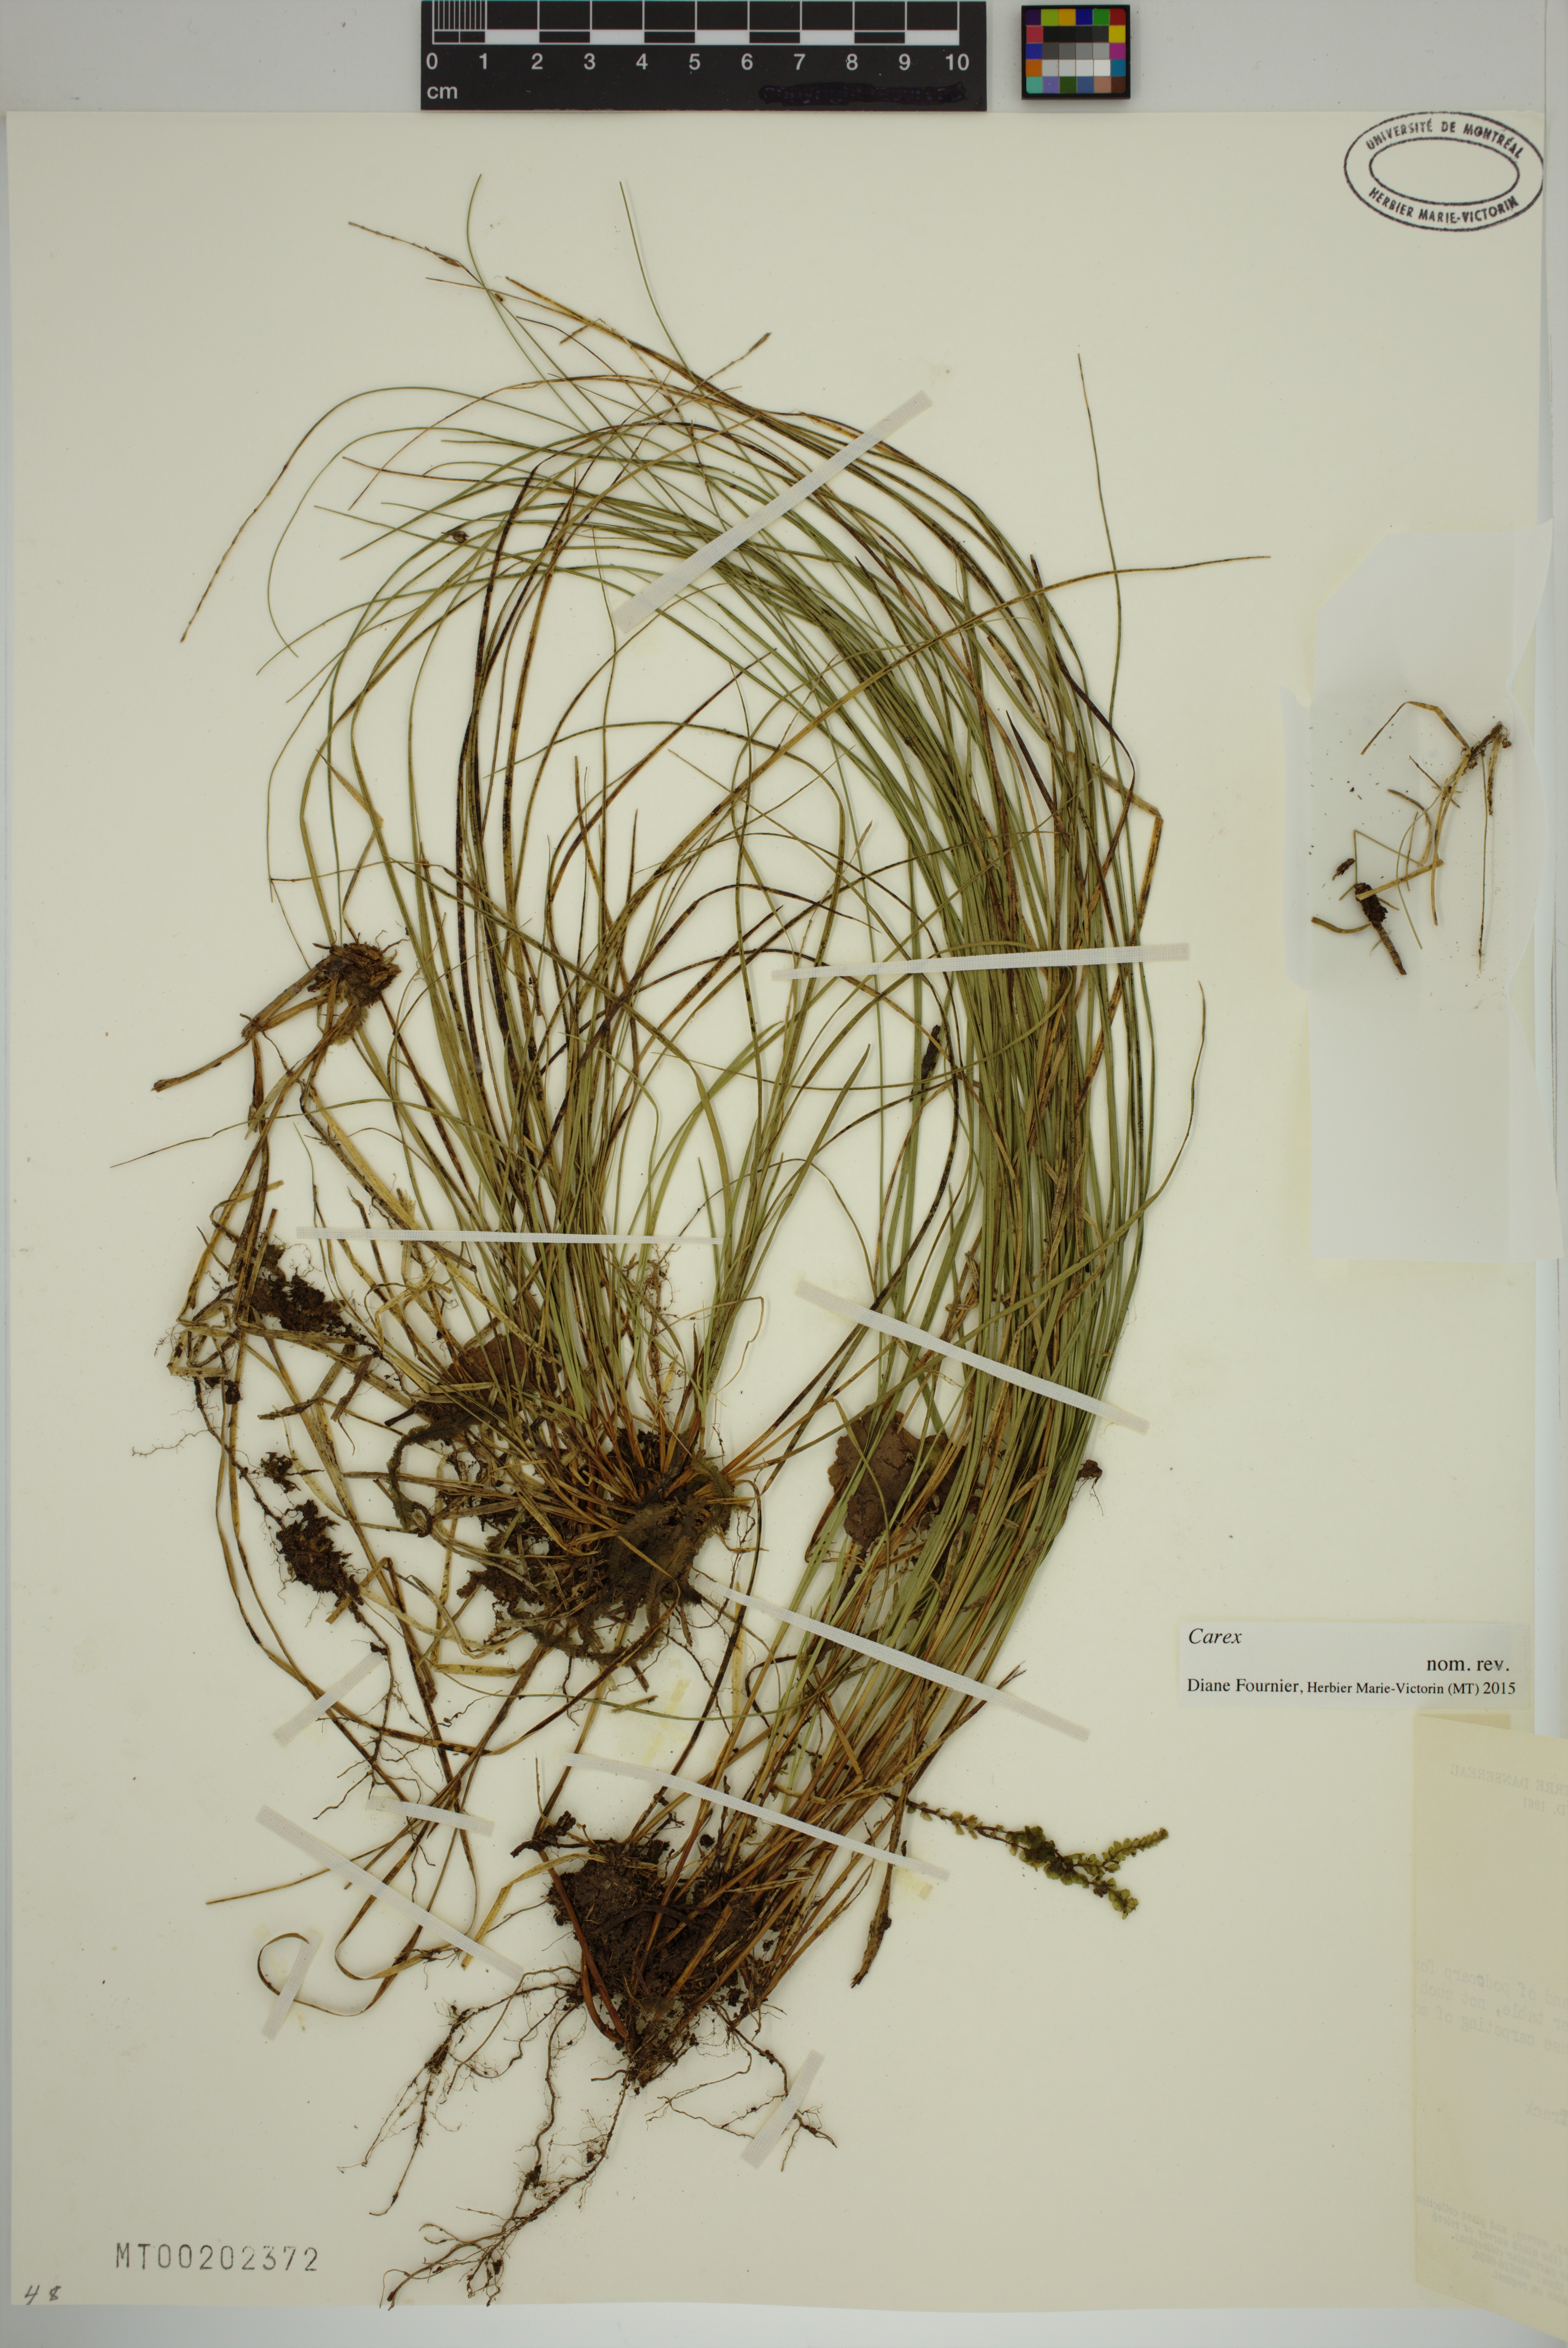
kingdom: Plantae
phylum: Tracheophyta
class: Liliopsida
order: Poales
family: Cyperaceae
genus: Carex
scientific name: Carex
